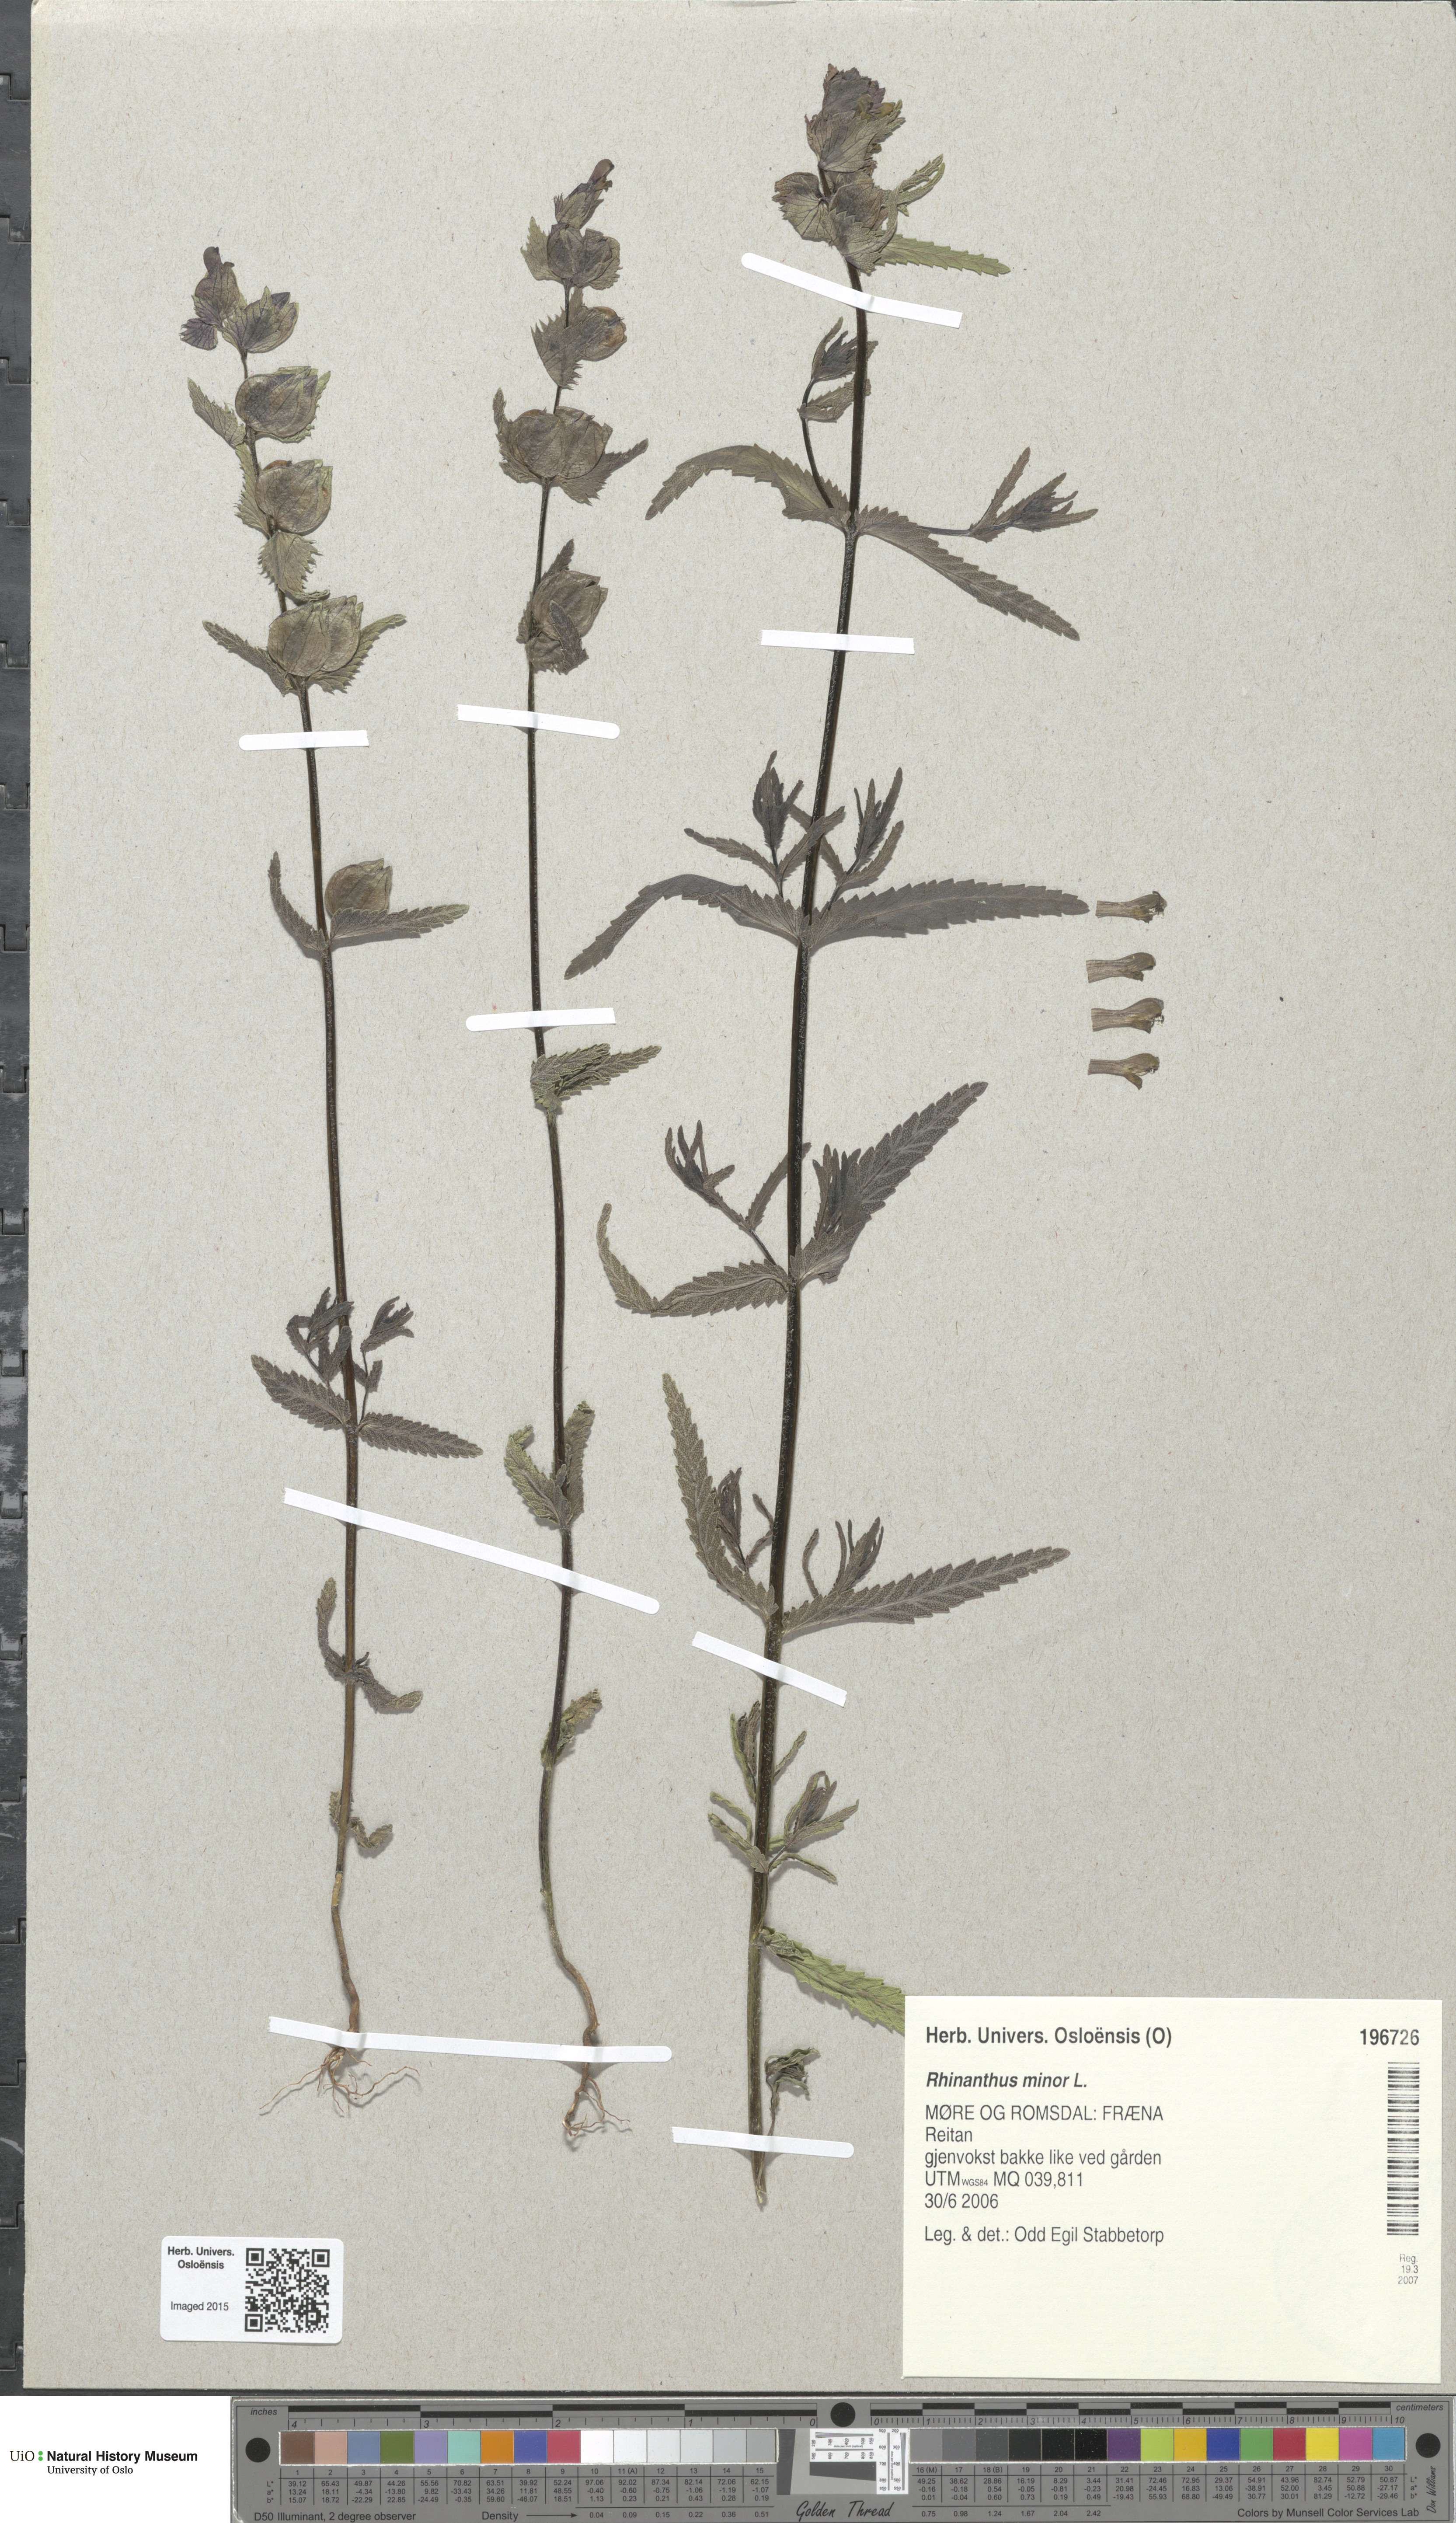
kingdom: Plantae
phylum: Tracheophyta
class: Magnoliopsida
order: Lamiales
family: Orobanchaceae
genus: Rhinanthus
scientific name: Rhinanthus minor
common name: Yellow-rattle
